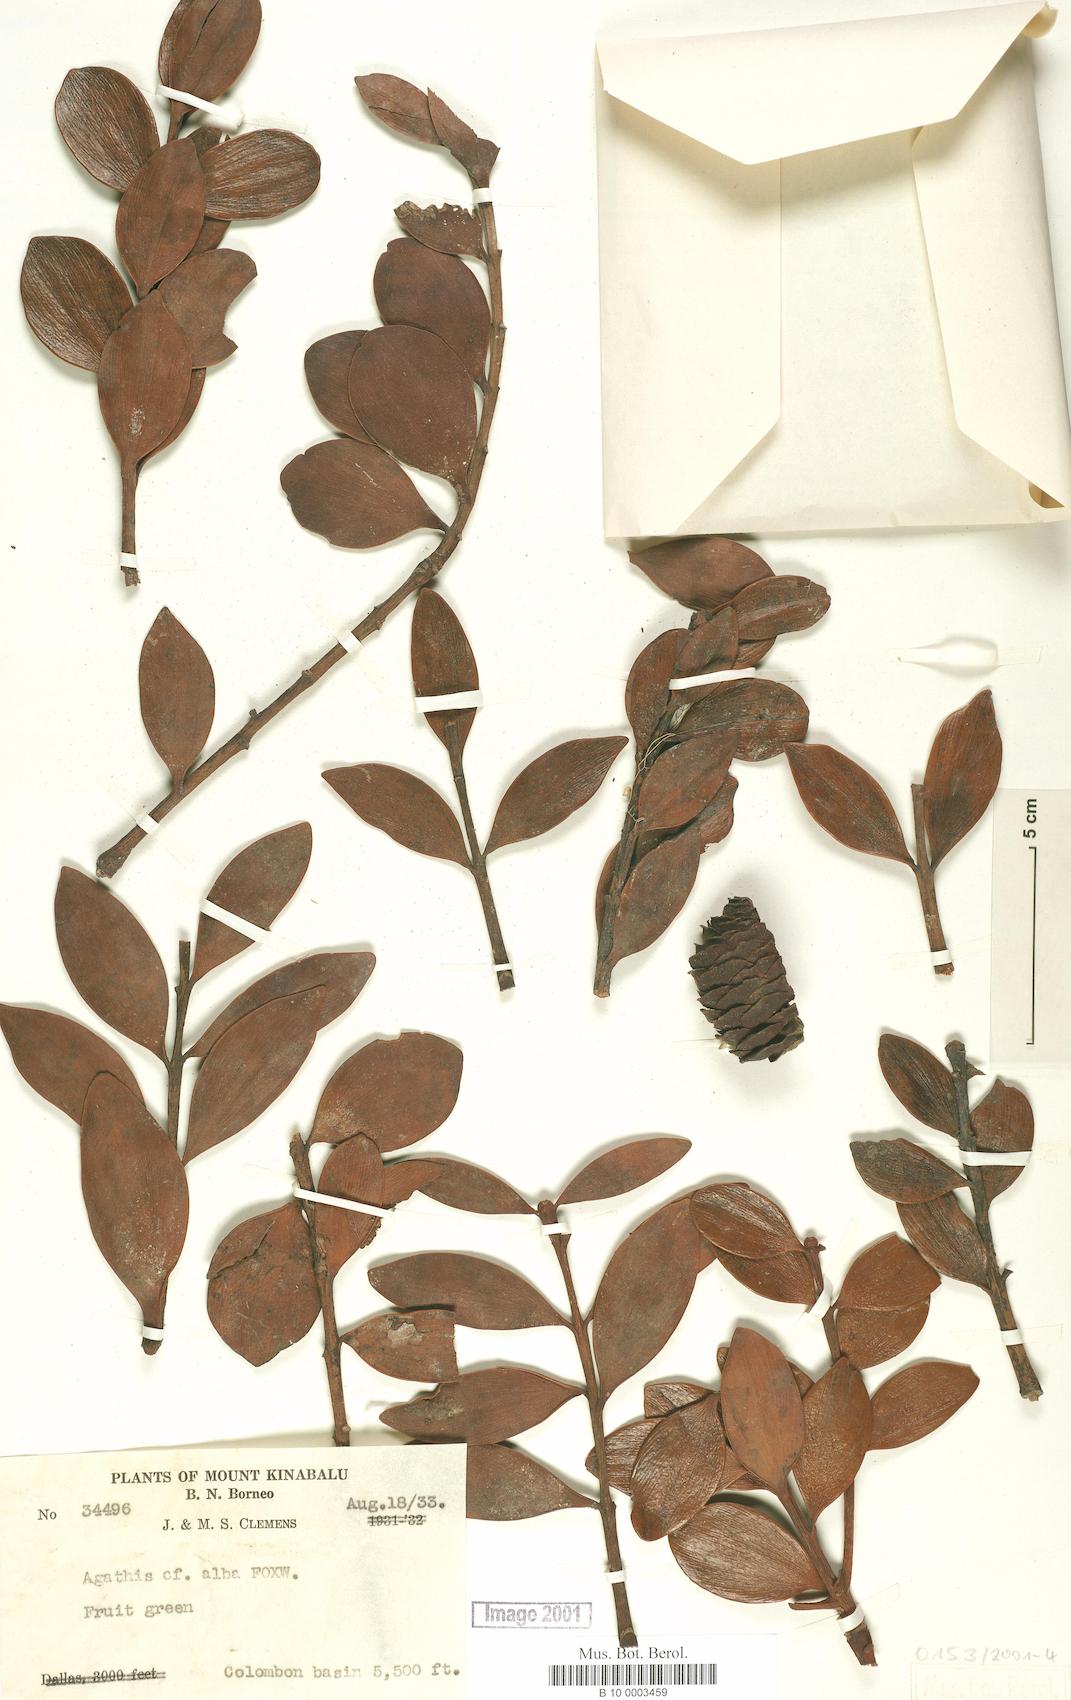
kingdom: Plantae
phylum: Tracheophyta
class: Pinopsida
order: Pinales
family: Araucariaceae
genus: Agathis
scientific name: Agathis dammara
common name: Amboina pitch tree
